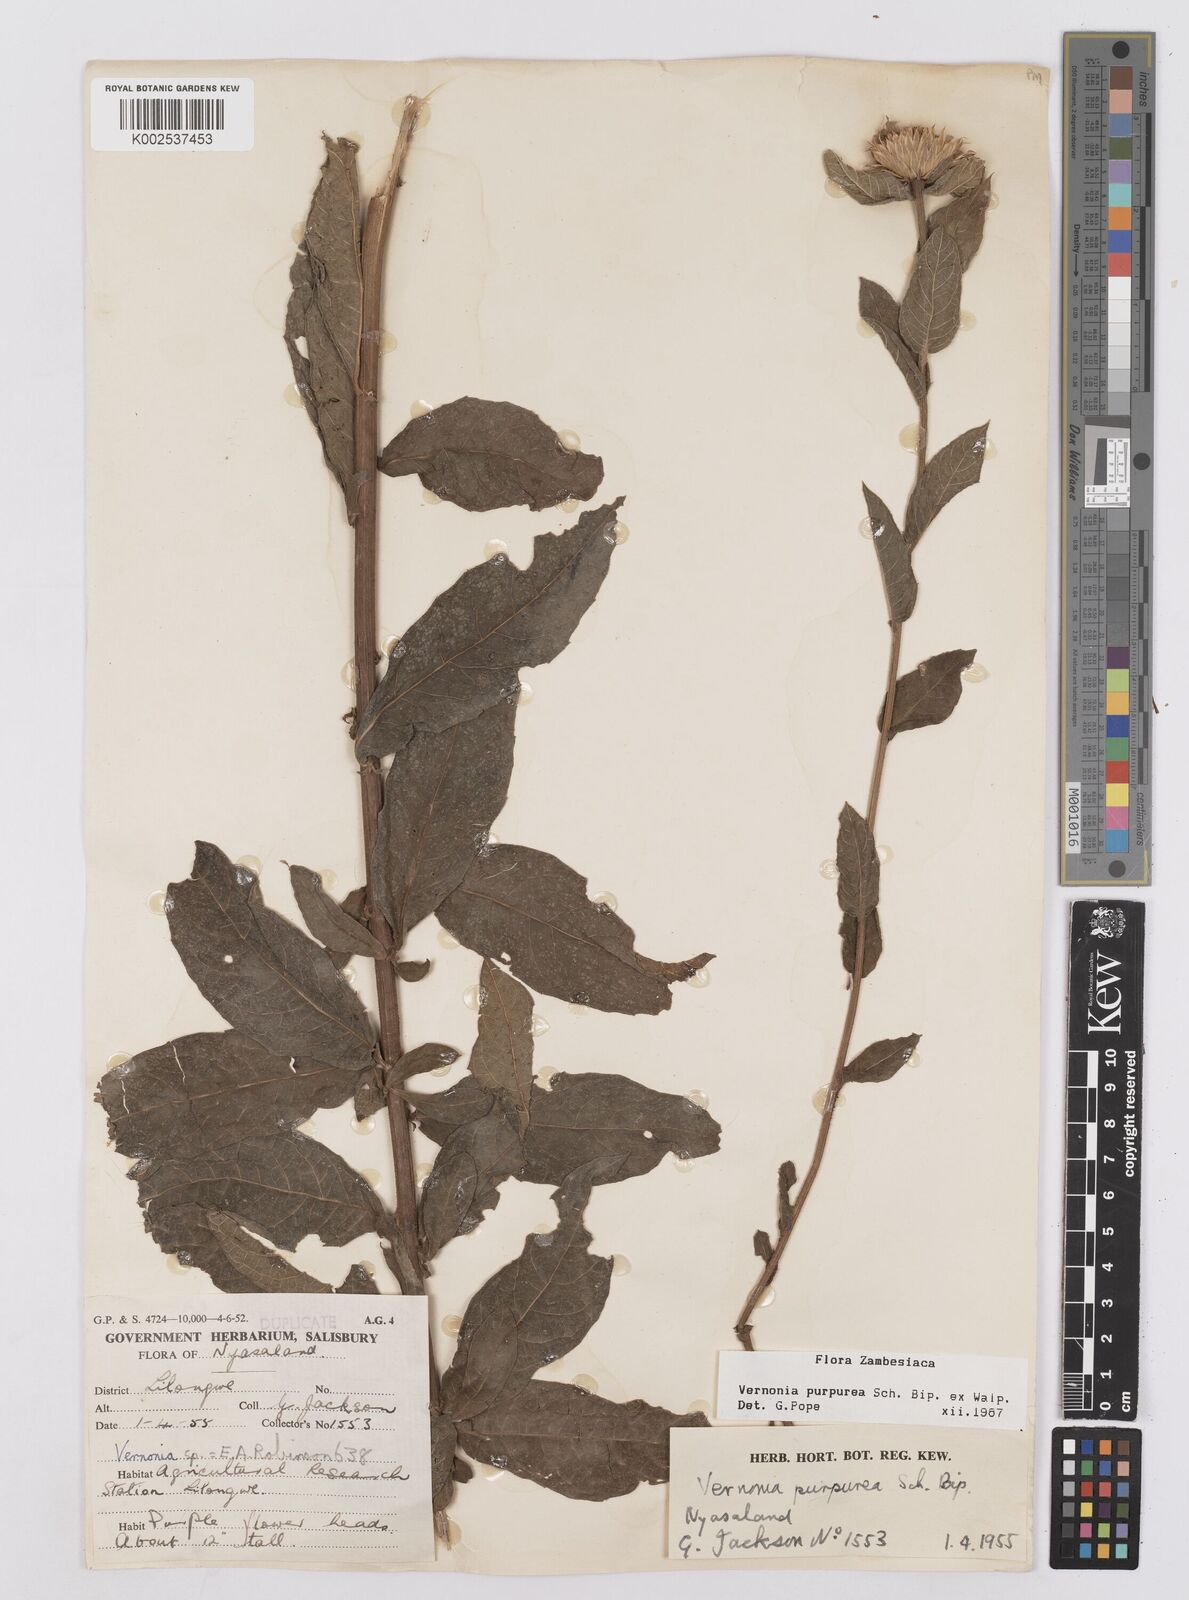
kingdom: Plantae
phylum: Tracheophyta
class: Magnoliopsida
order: Asterales
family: Asteraceae
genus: Nothovernonia
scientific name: Nothovernonia purpurea
